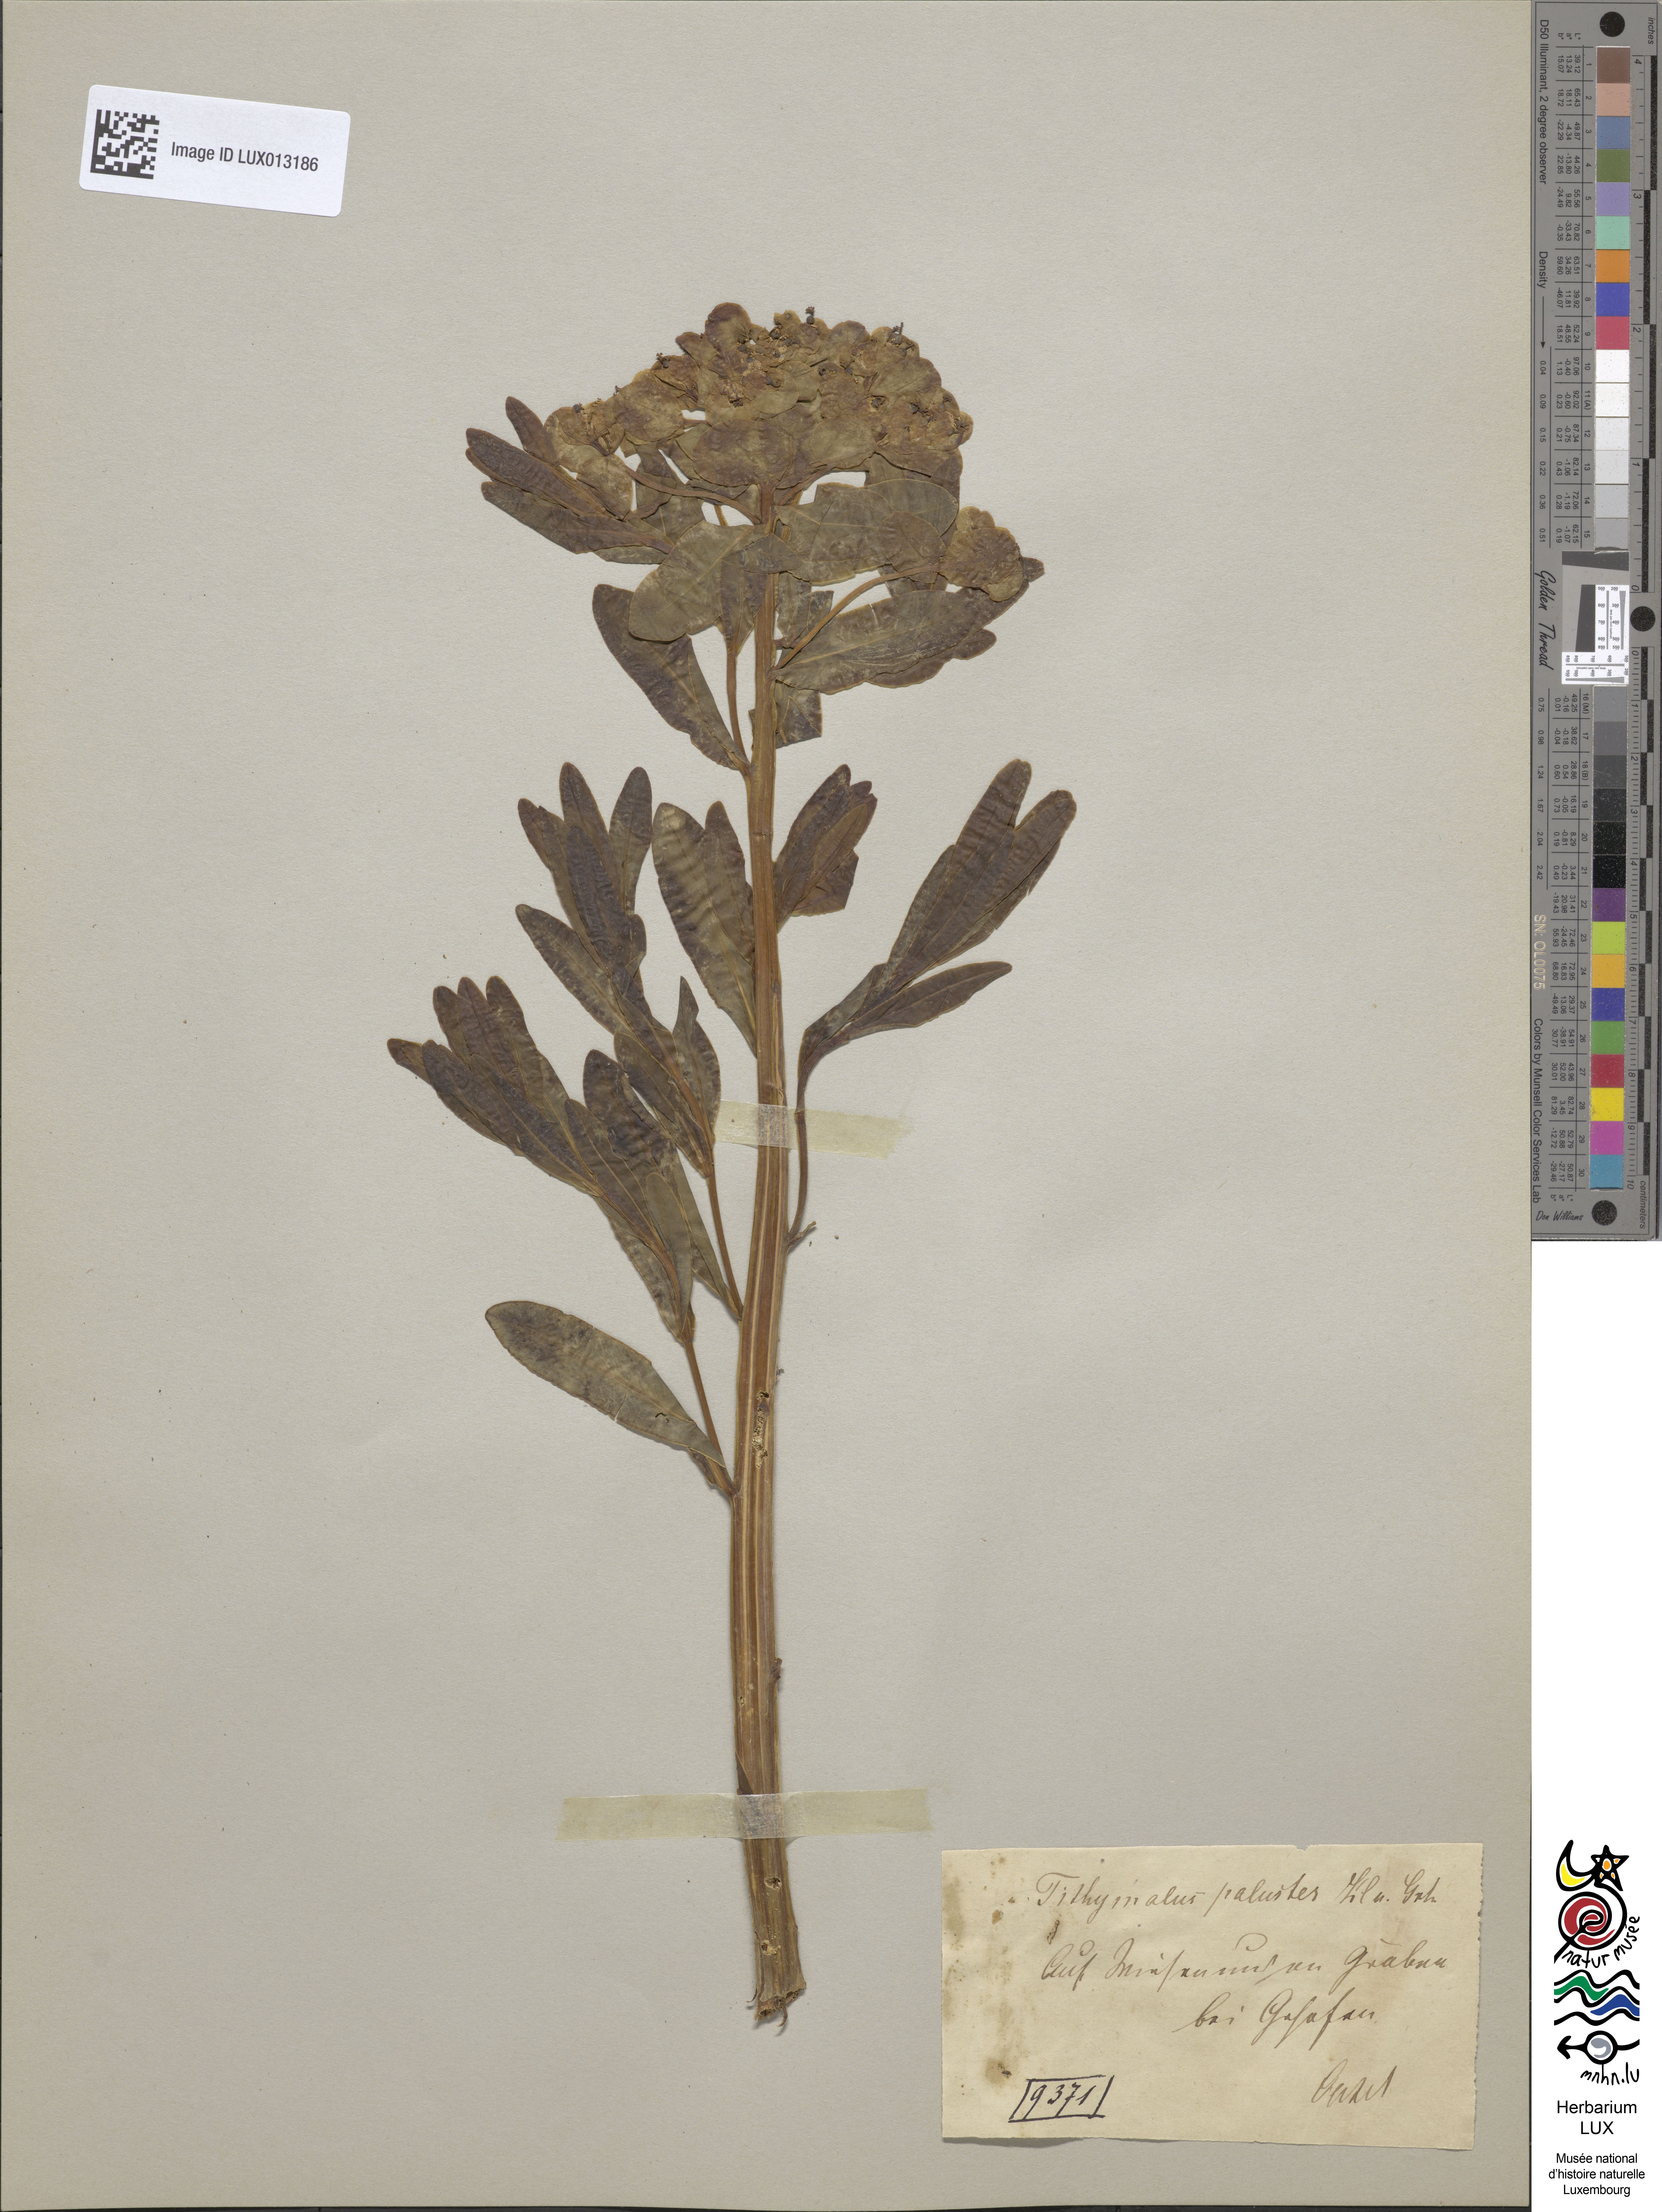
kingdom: Plantae
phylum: Tracheophyta
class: Magnoliopsida
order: Malpighiales
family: Euphorbiaceae
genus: Euphorbia
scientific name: Euphorbia palustris
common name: Marsh spurge
